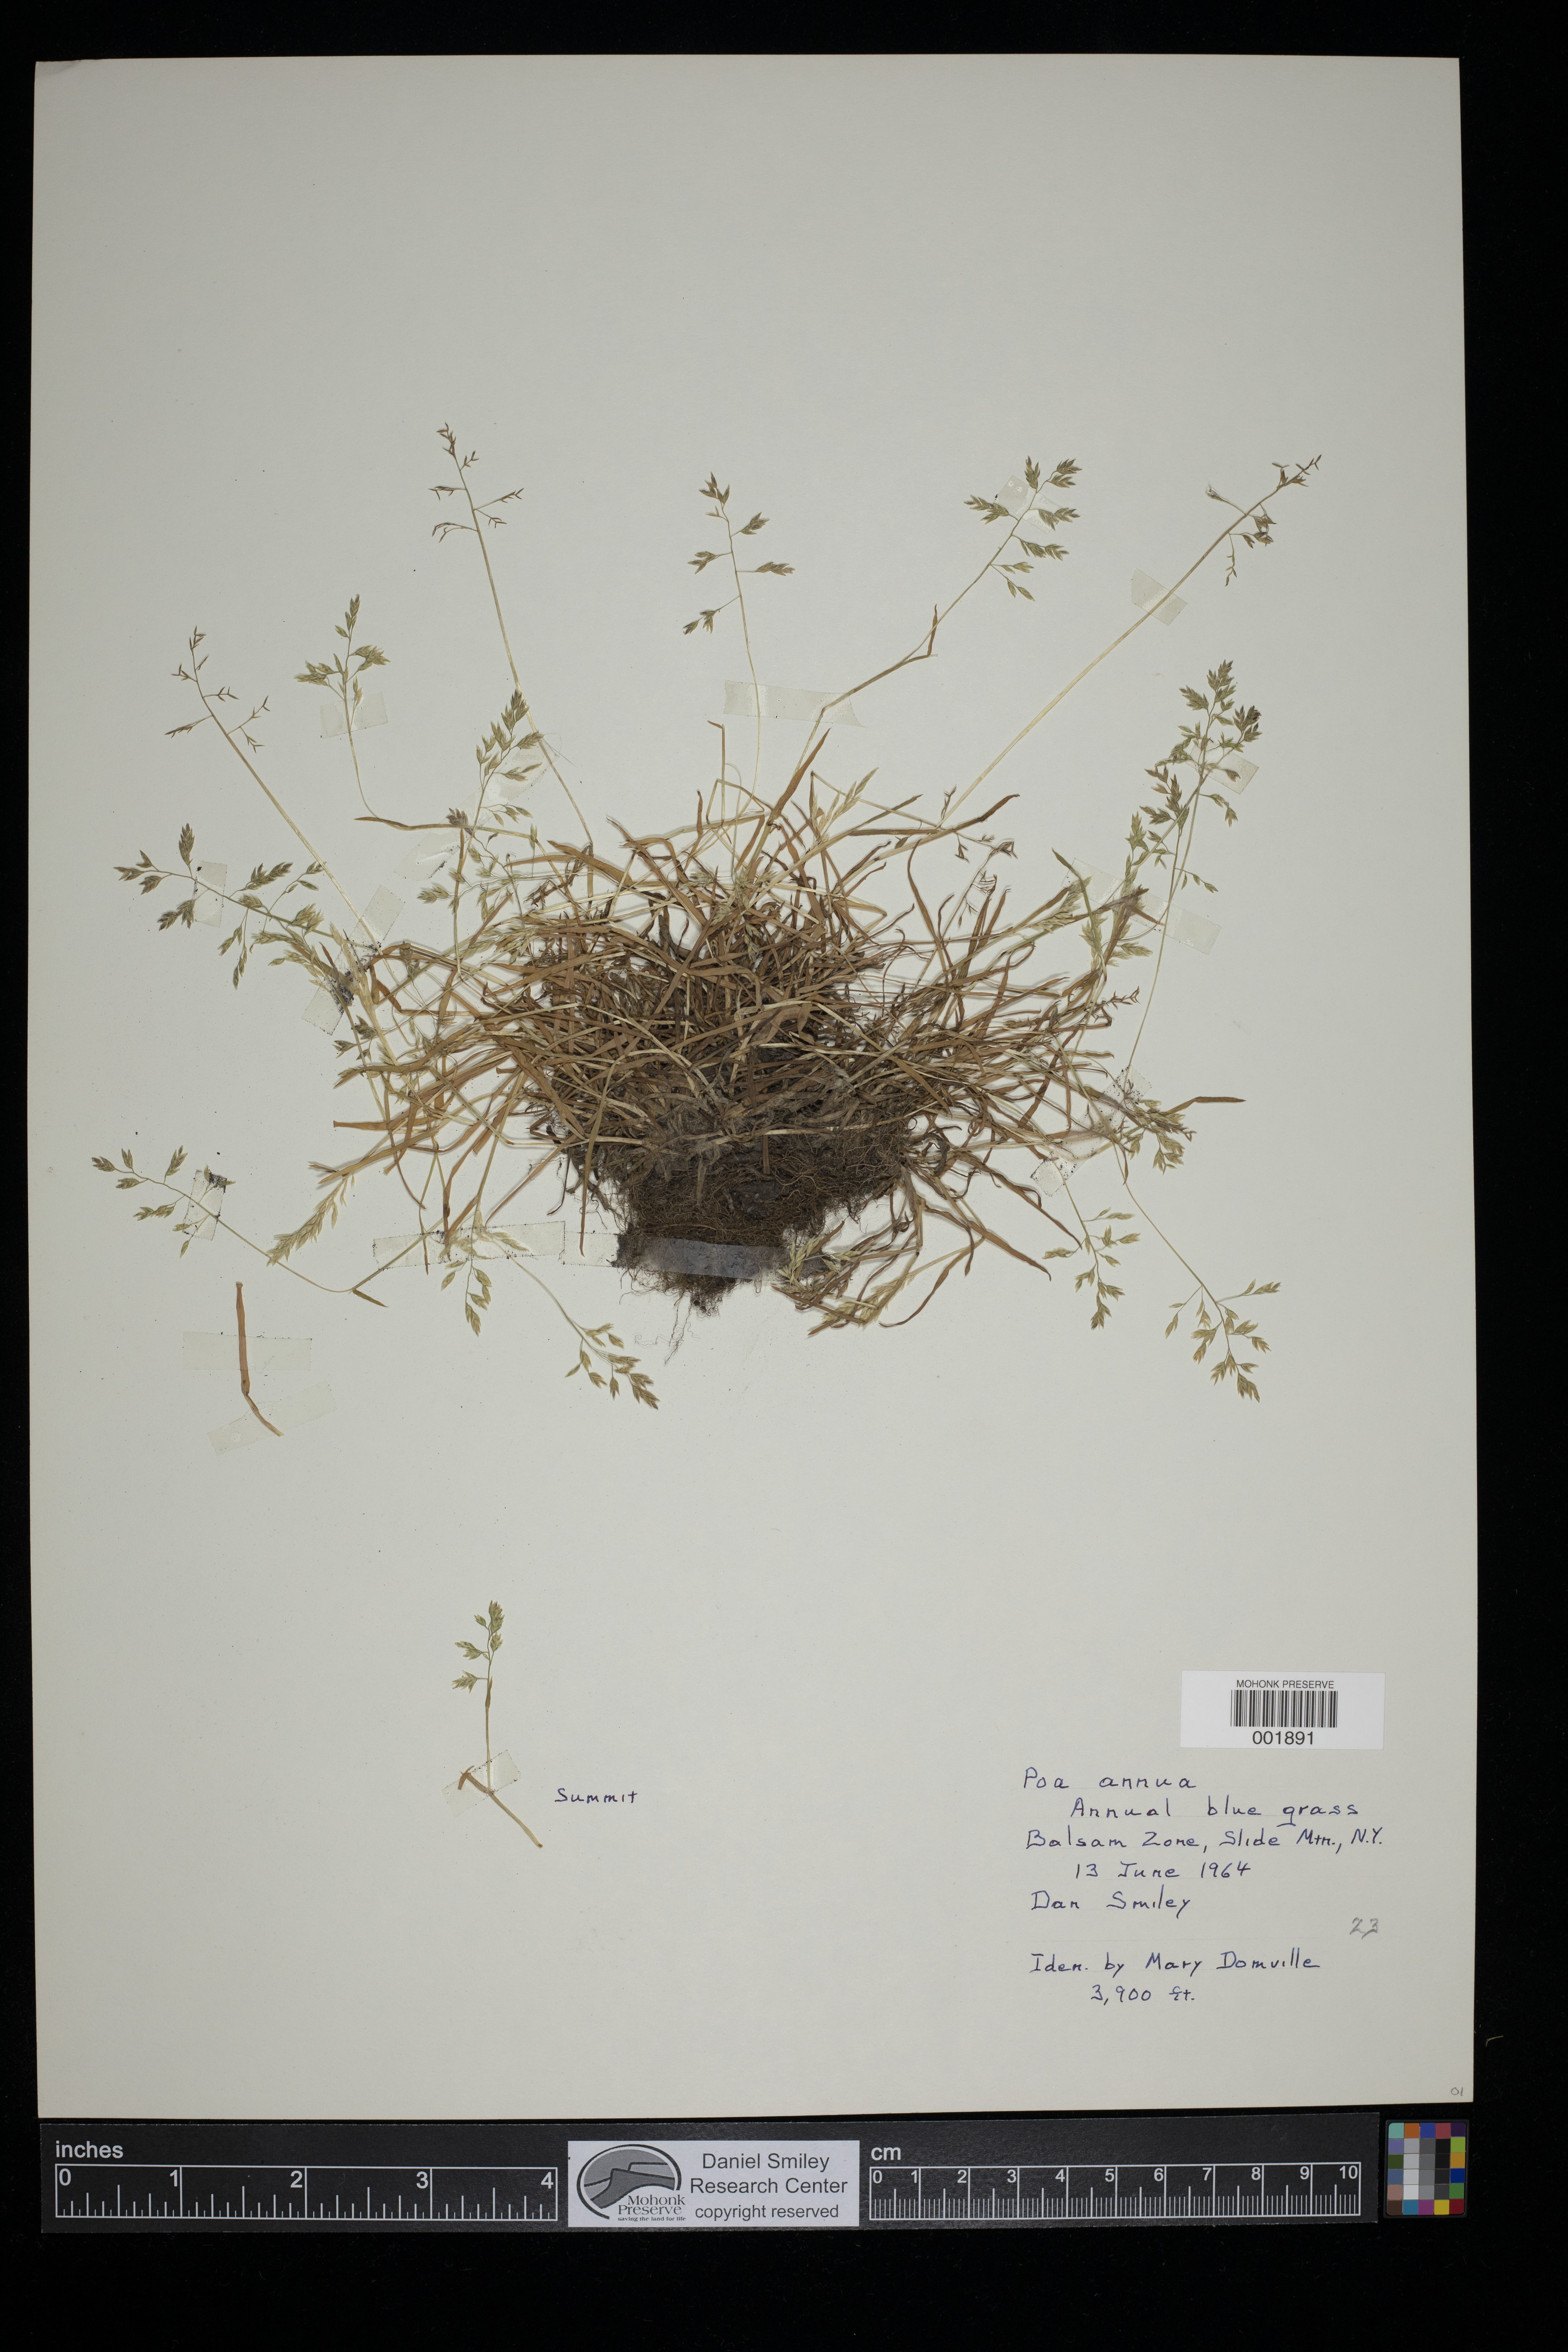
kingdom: Plantae
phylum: Tracheophyta
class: Liliopsida
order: Poales
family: Poaceae
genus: Poa
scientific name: Poa annua
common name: Annual bluegrass
